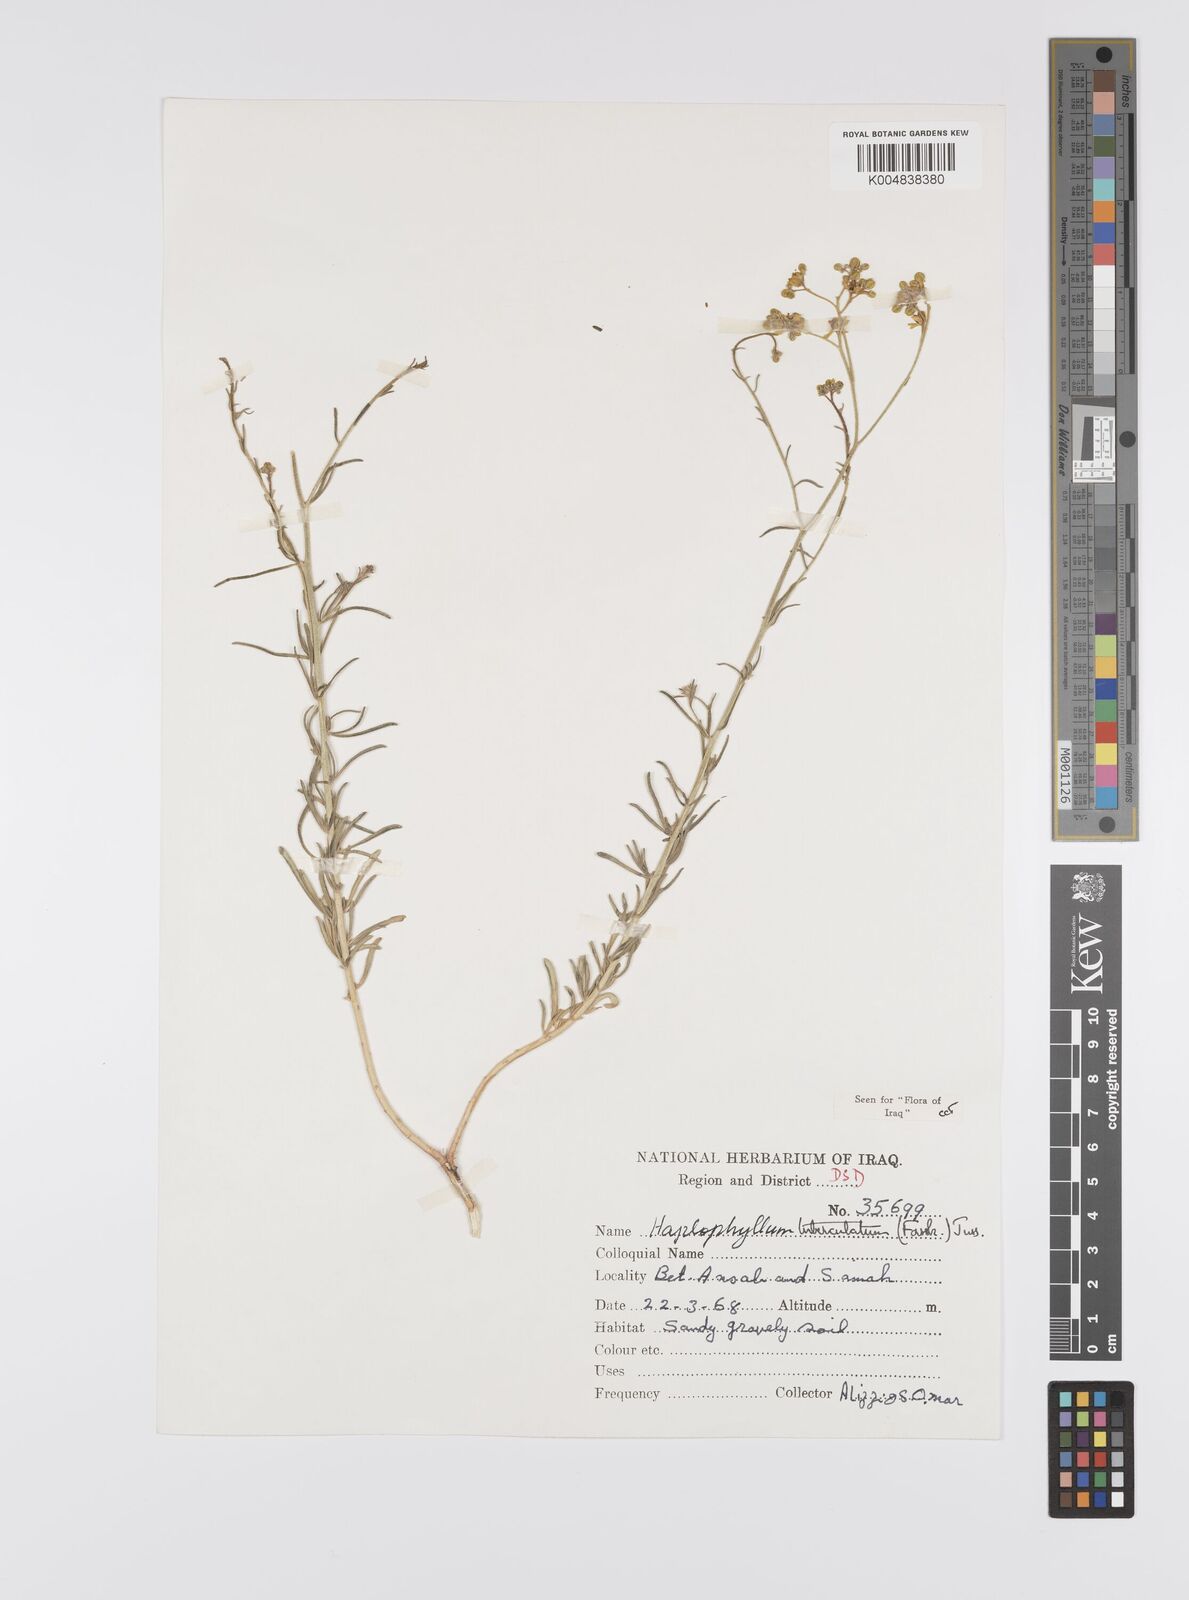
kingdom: Plantae
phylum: Tracheophyta
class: Magnoliopsida
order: Sapindales
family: Rutaceae
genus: Haplophyllum
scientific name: Haplophyllum tuberculatum
